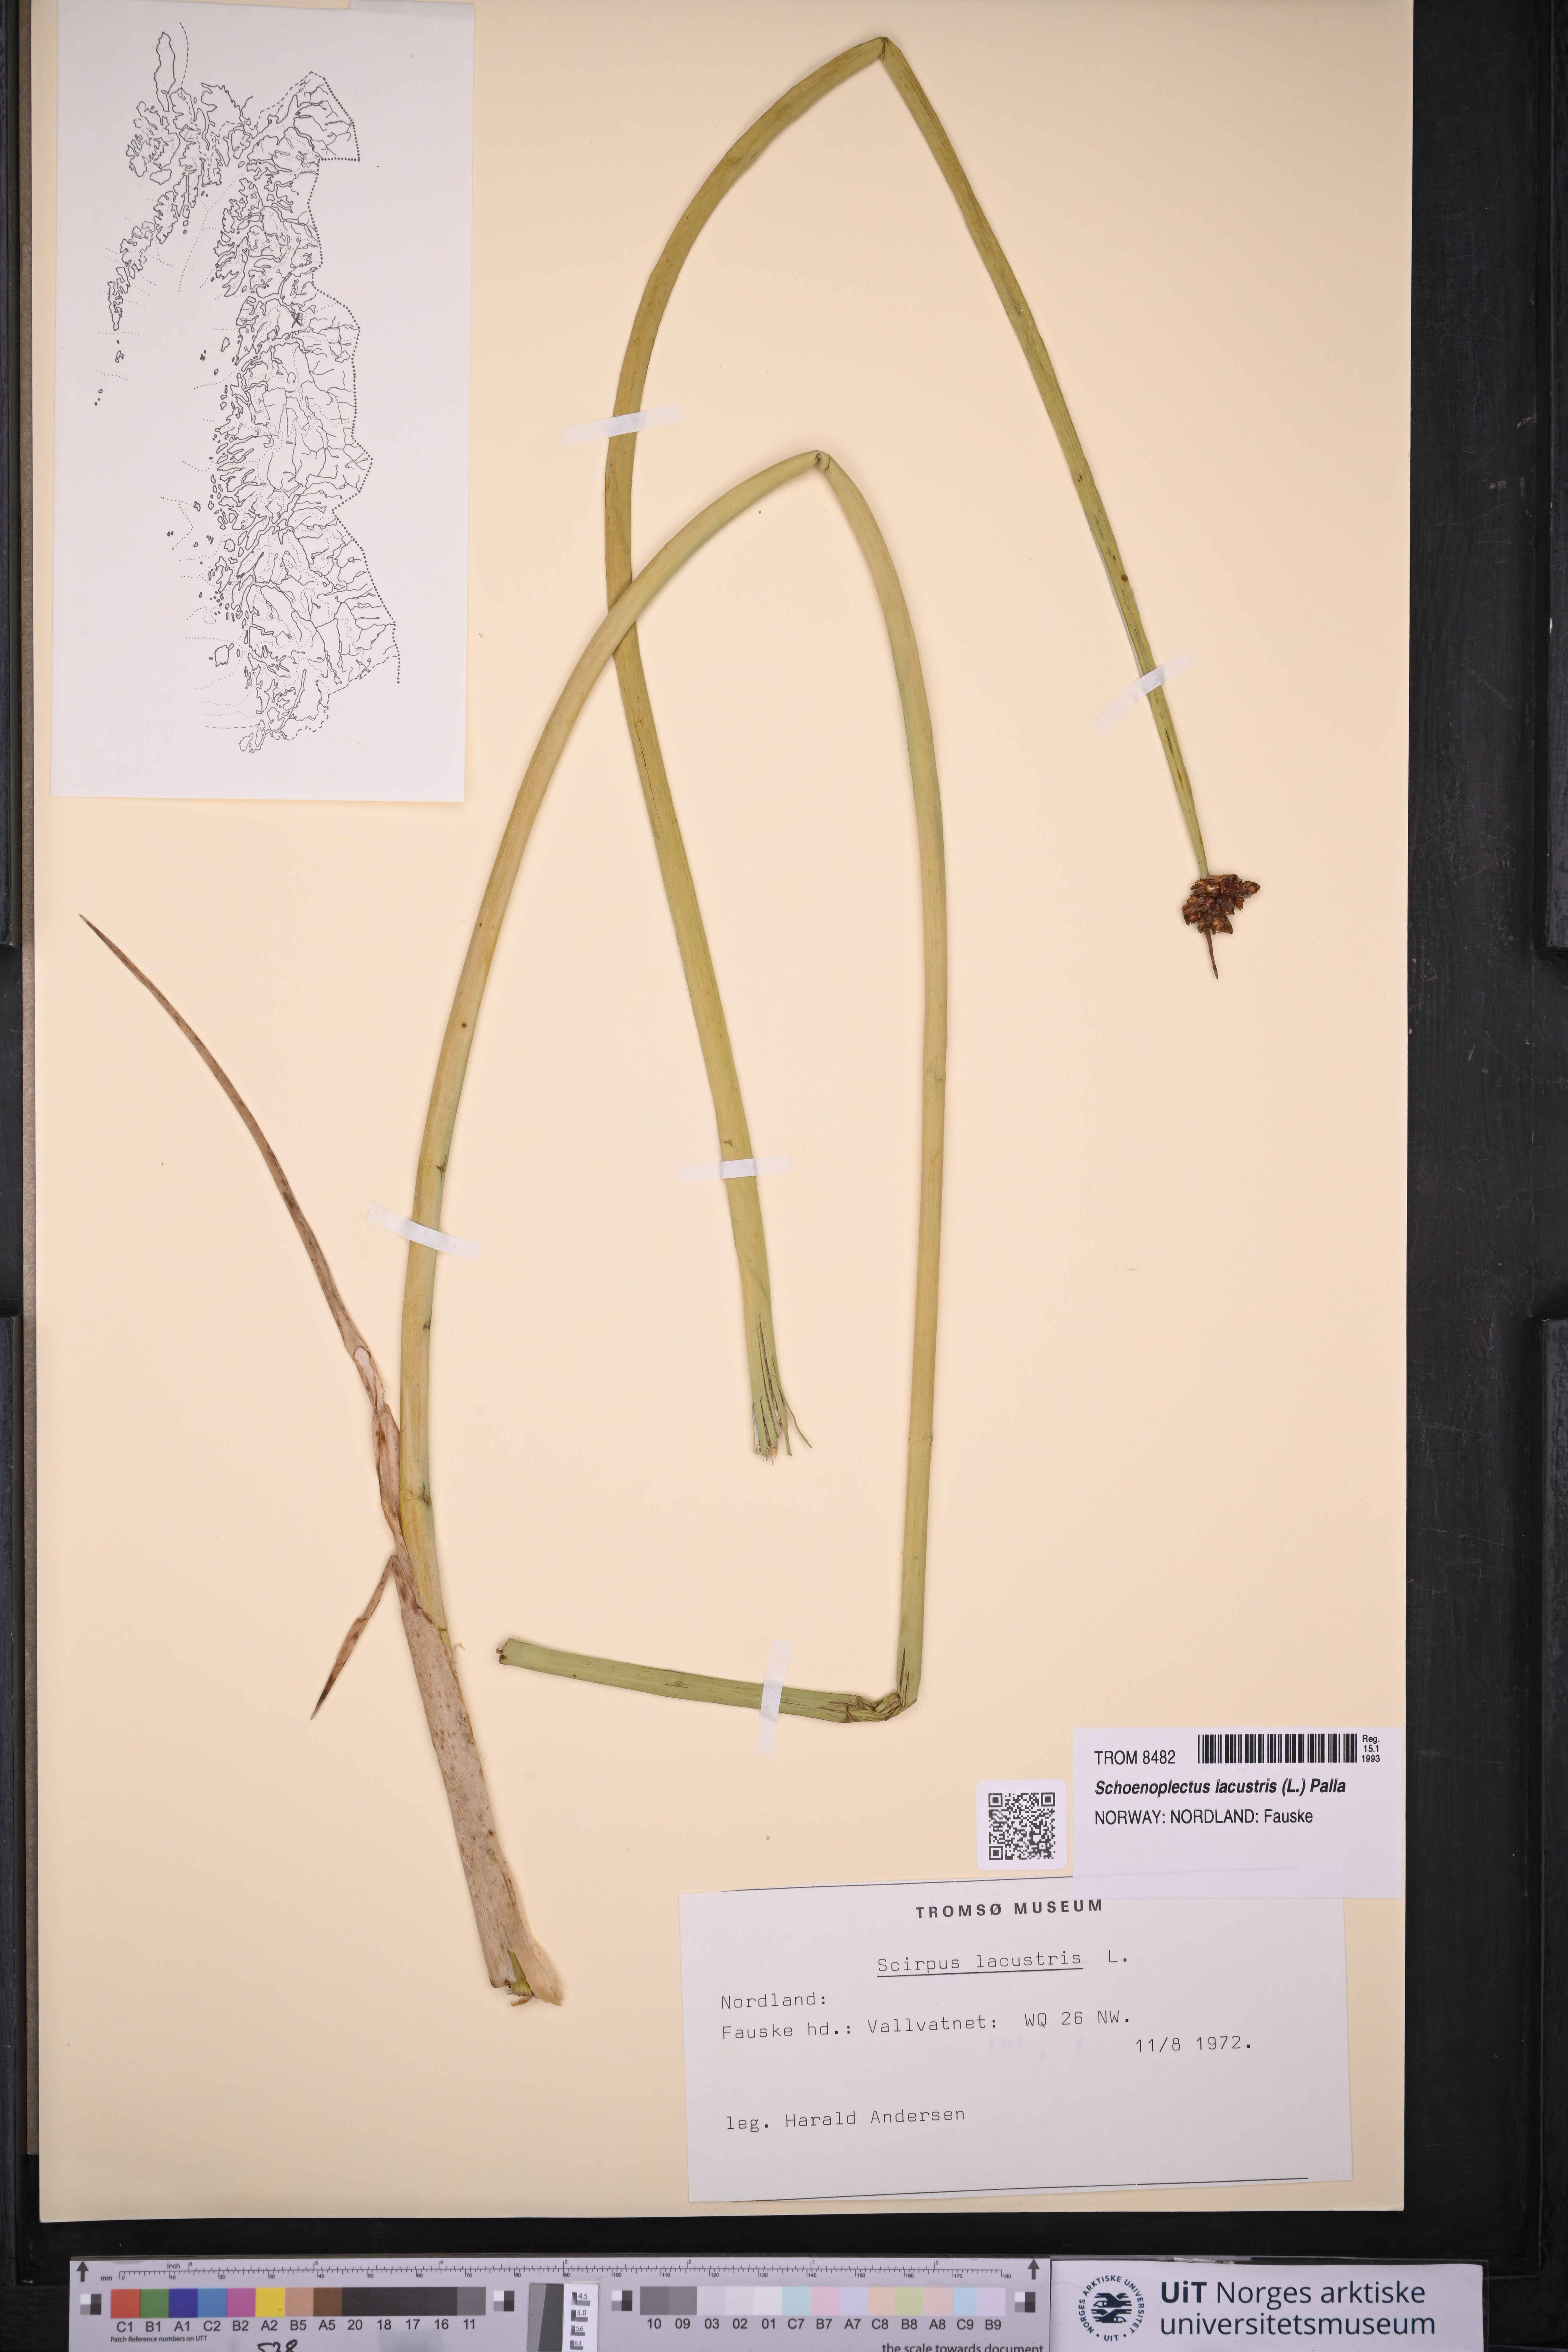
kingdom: Plantae
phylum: Tracheophyta
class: Liliopsida
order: Poales
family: Cyperaceae
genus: Schoenoplectus
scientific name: Schoenoplectus lacustris
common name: Common club-rush
